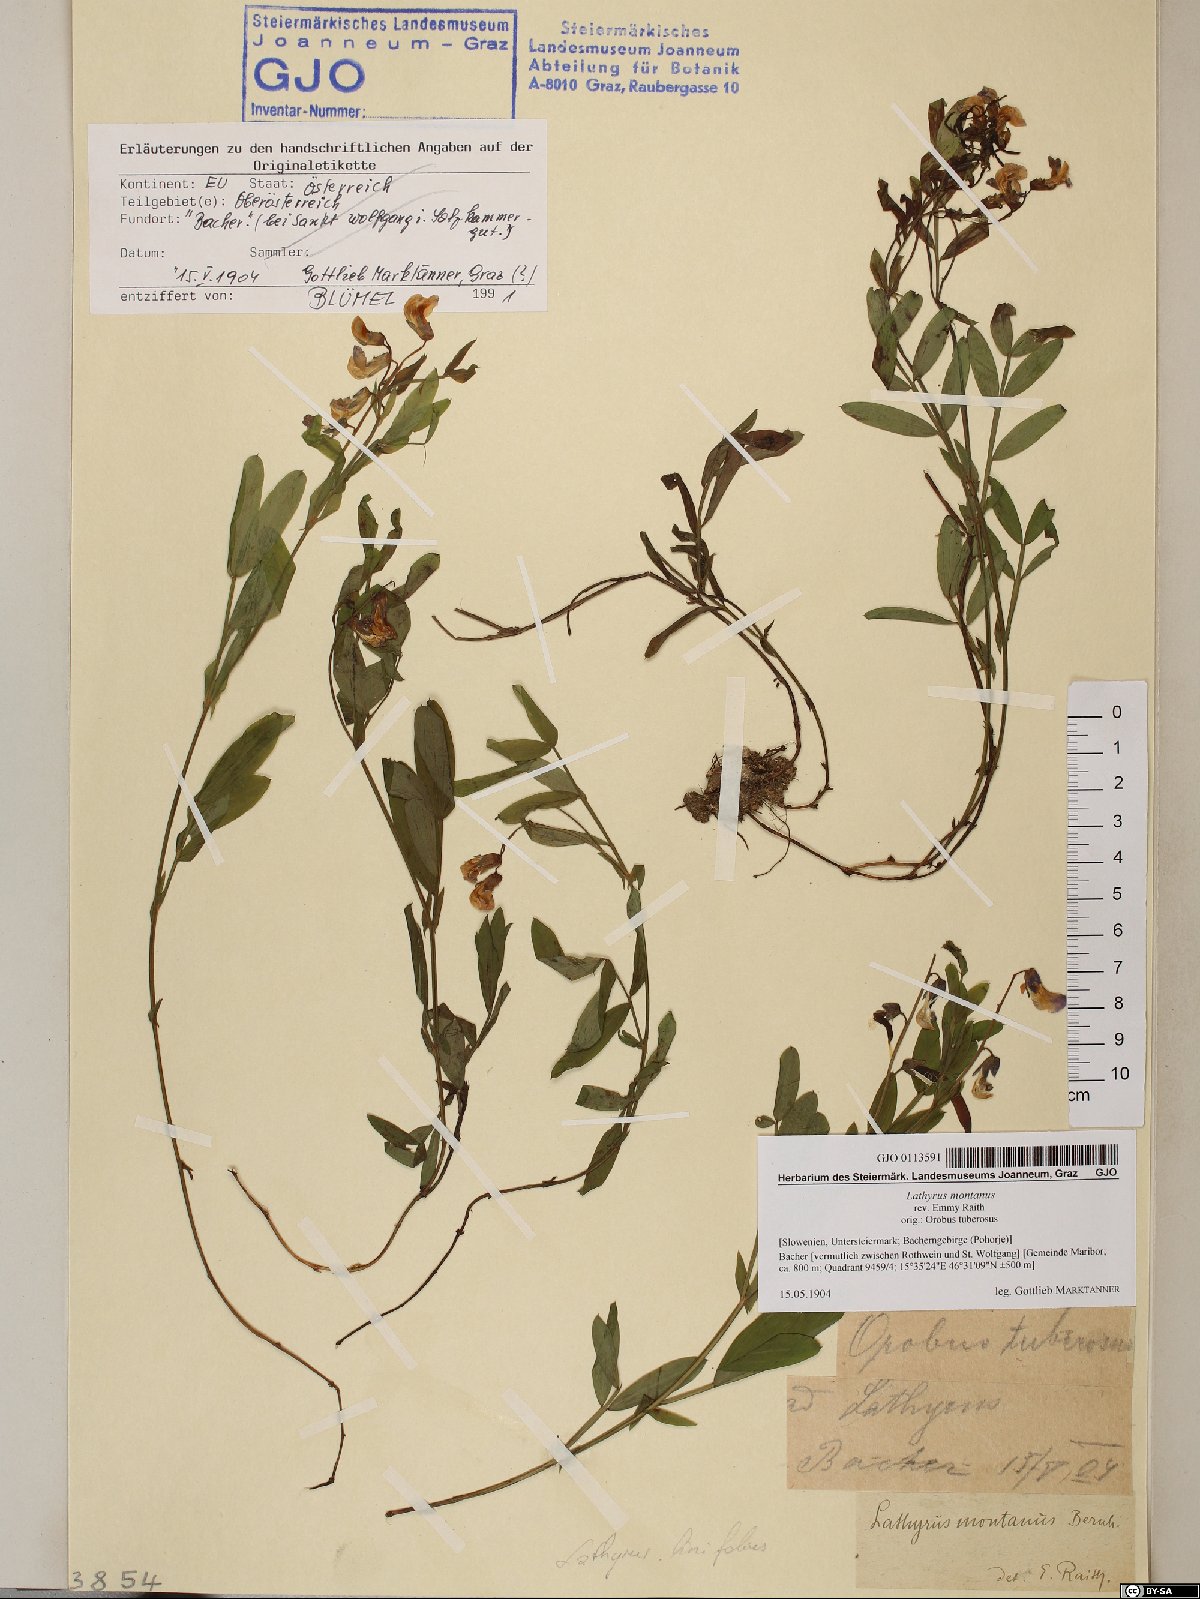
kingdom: Plantae
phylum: Tracheophyta
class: Magnoliopsida
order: Fabales
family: Fabaceae
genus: Lathyrus
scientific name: Lathyrus linifolius
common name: Bitter-vetch
